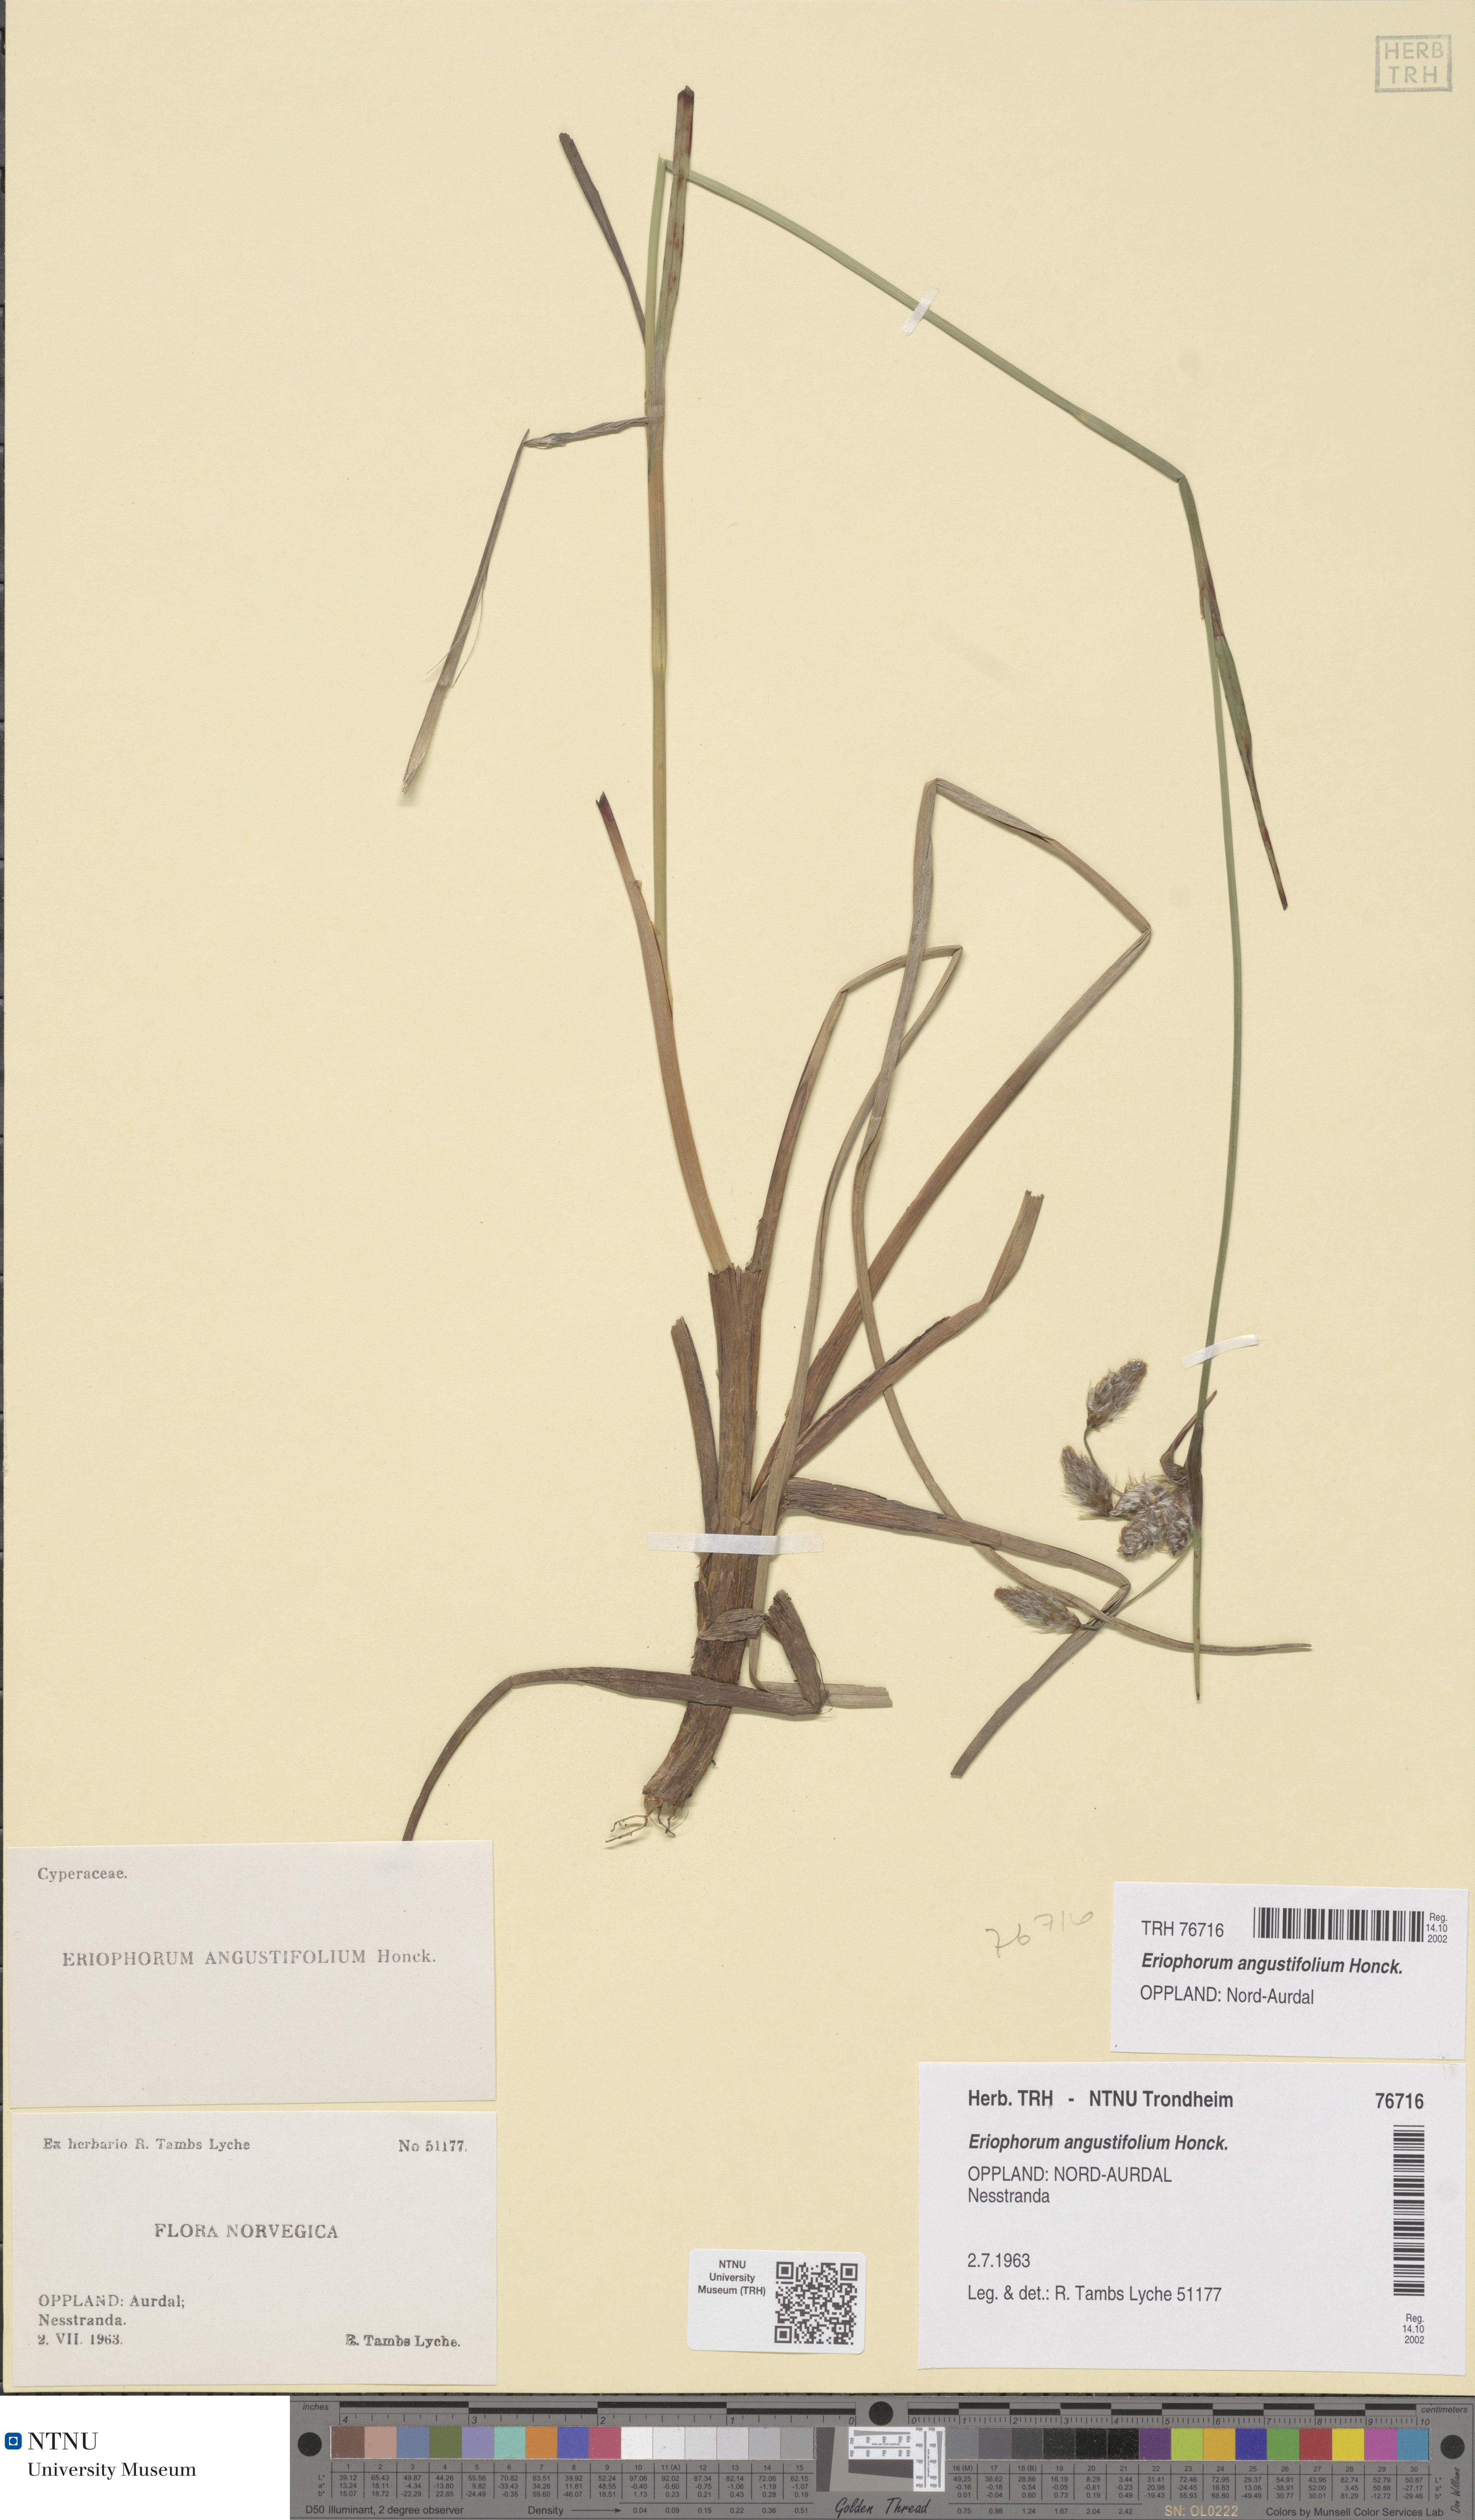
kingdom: Plantae
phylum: Tracheophyta
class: Liliopsida
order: Poales
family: Cyperaceae
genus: Eriophorum
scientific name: Eriophorum angustifolium
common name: Common cottongrass
